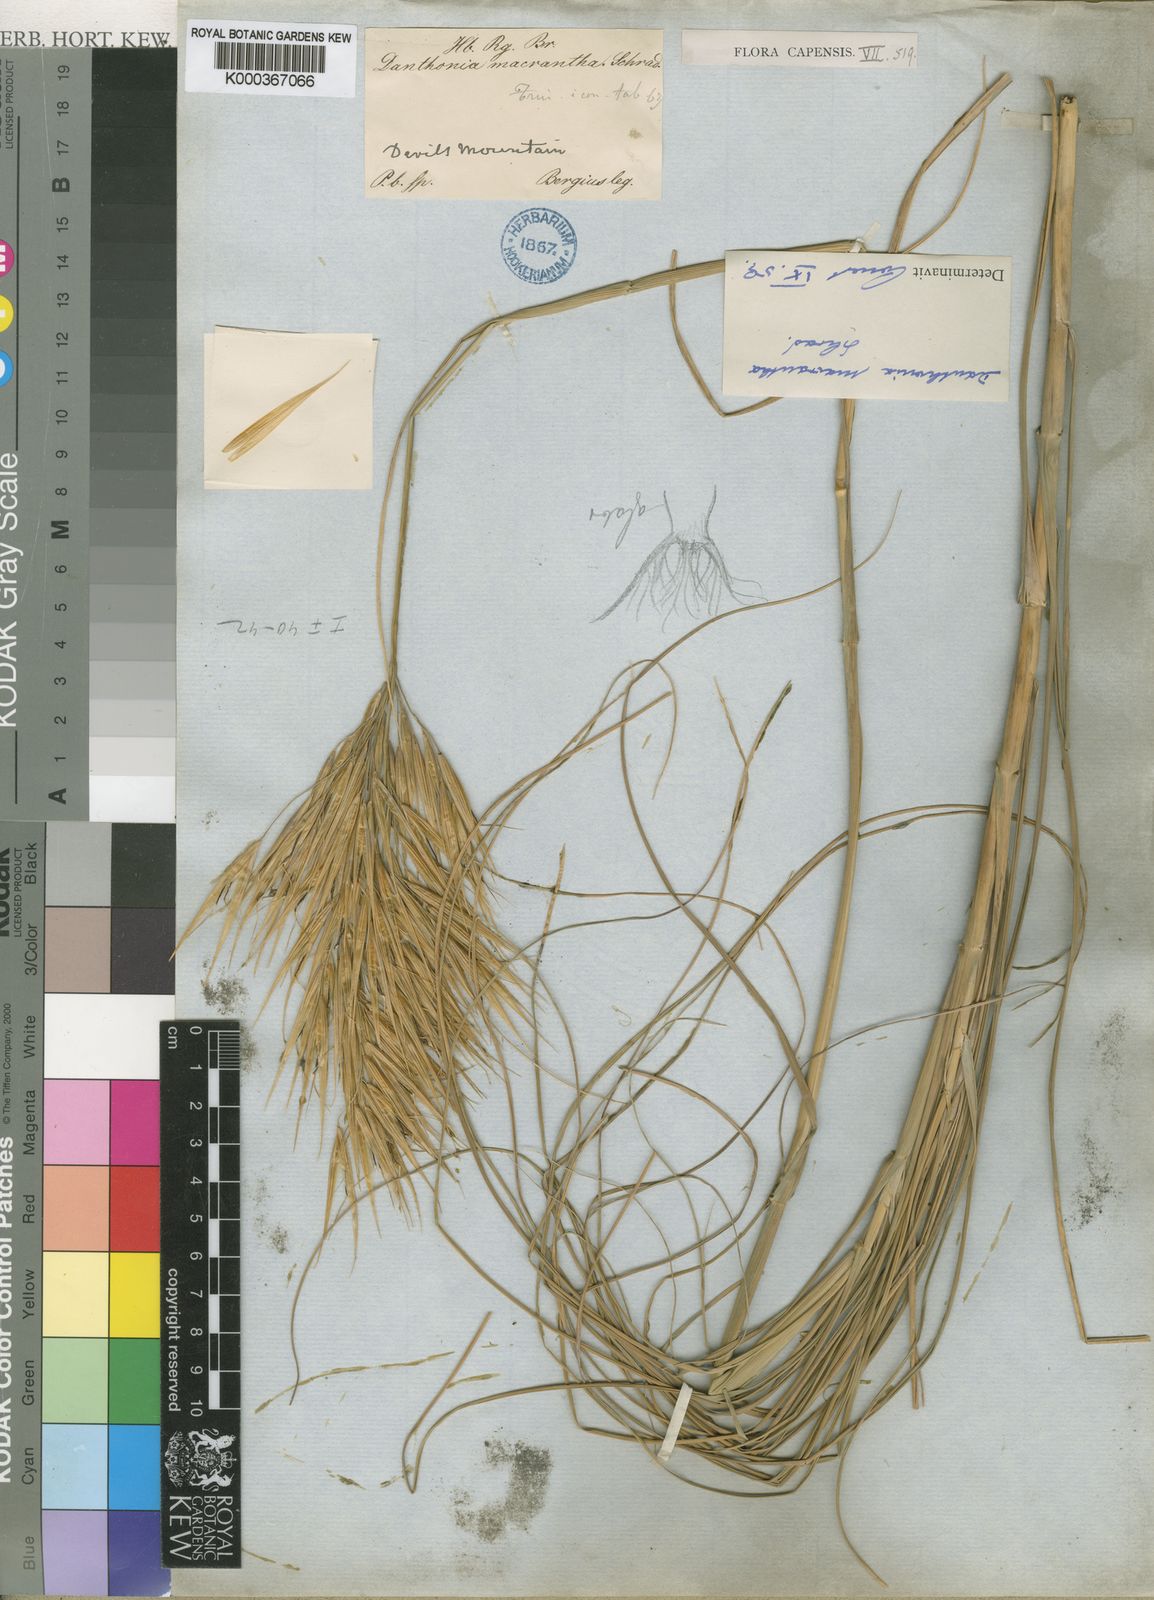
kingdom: Plantae
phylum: Tracheophyta
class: Liliopsida
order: Poales
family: Poaceae
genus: Pseudopentameris
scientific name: Pseudopentameris macrantha
